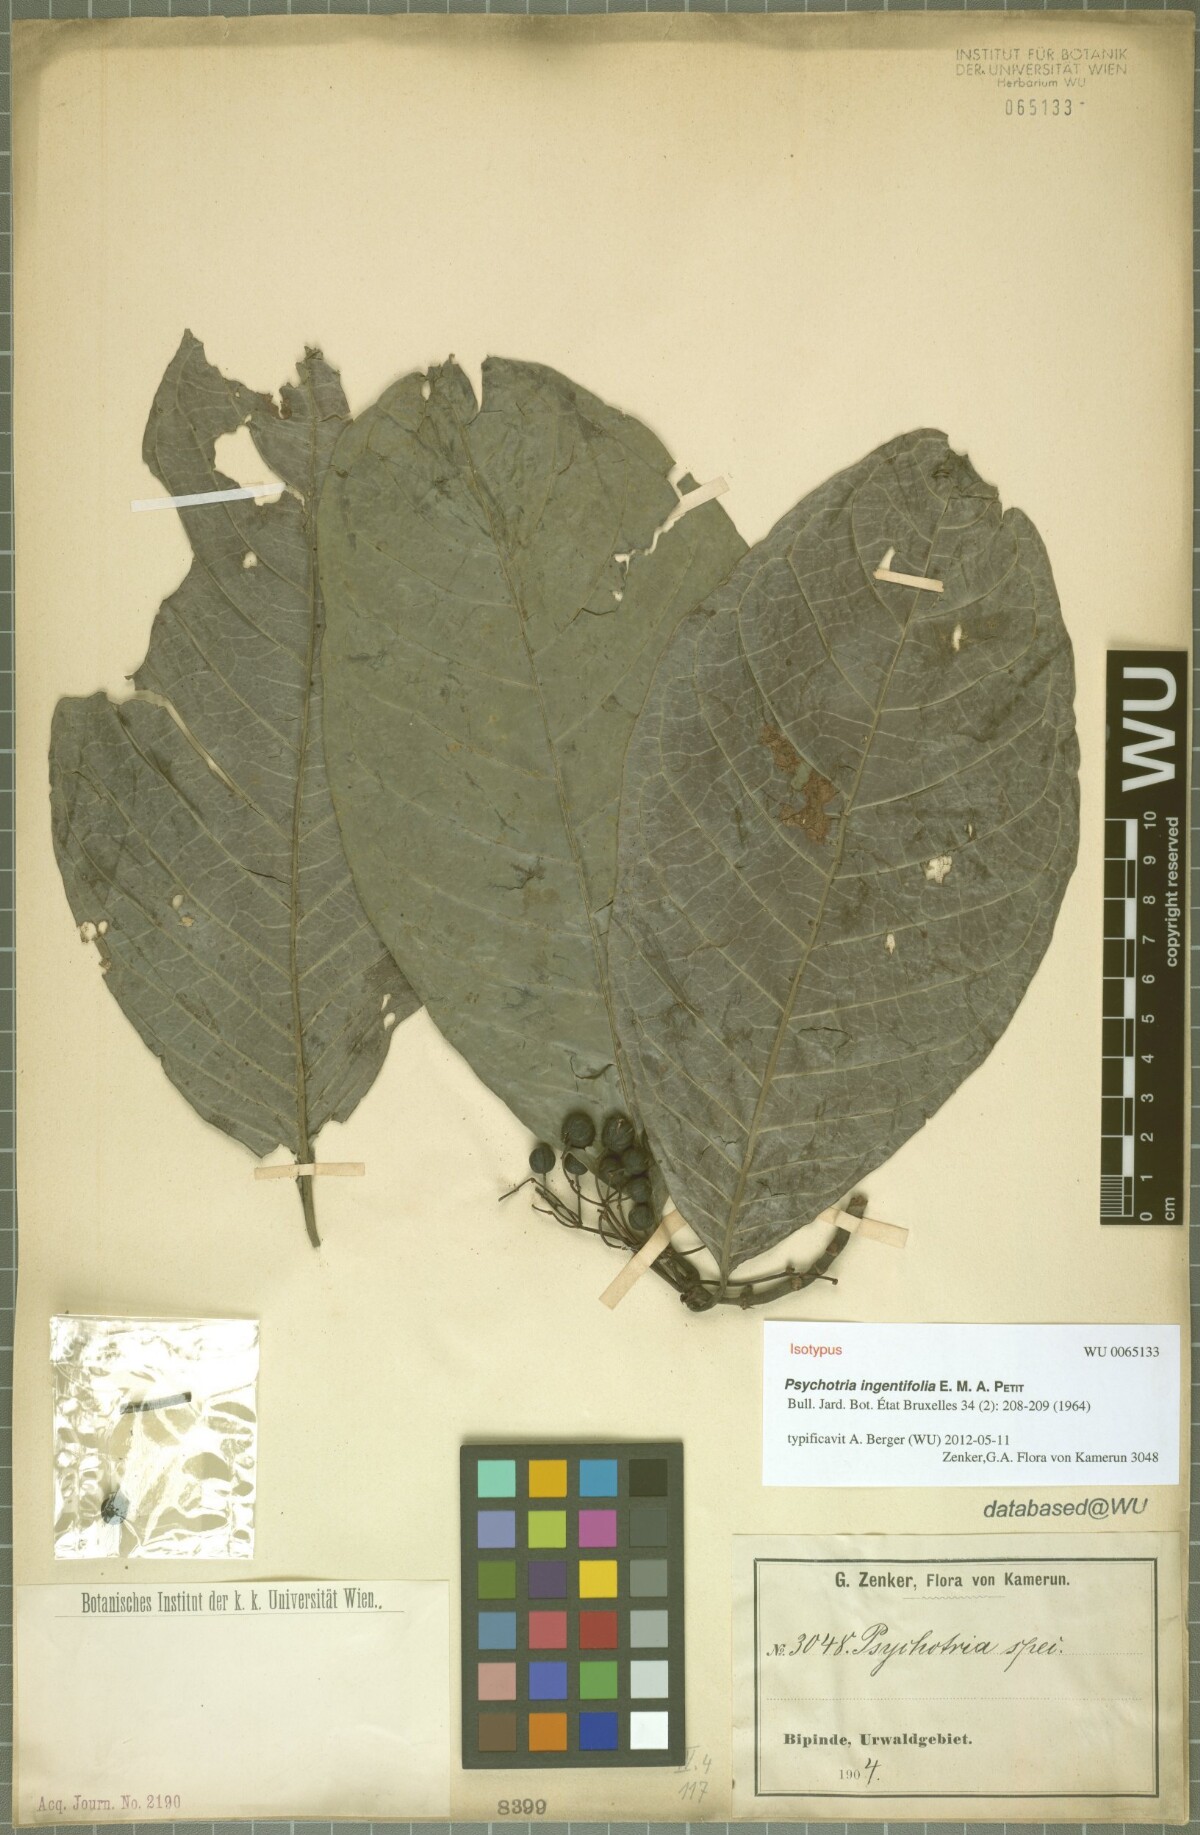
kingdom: Plantae
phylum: Tracheophyta
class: Magnoliopsida
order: Gentianales
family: Rubiaceae
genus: Psychotria
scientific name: Psychotria ingentifolia
